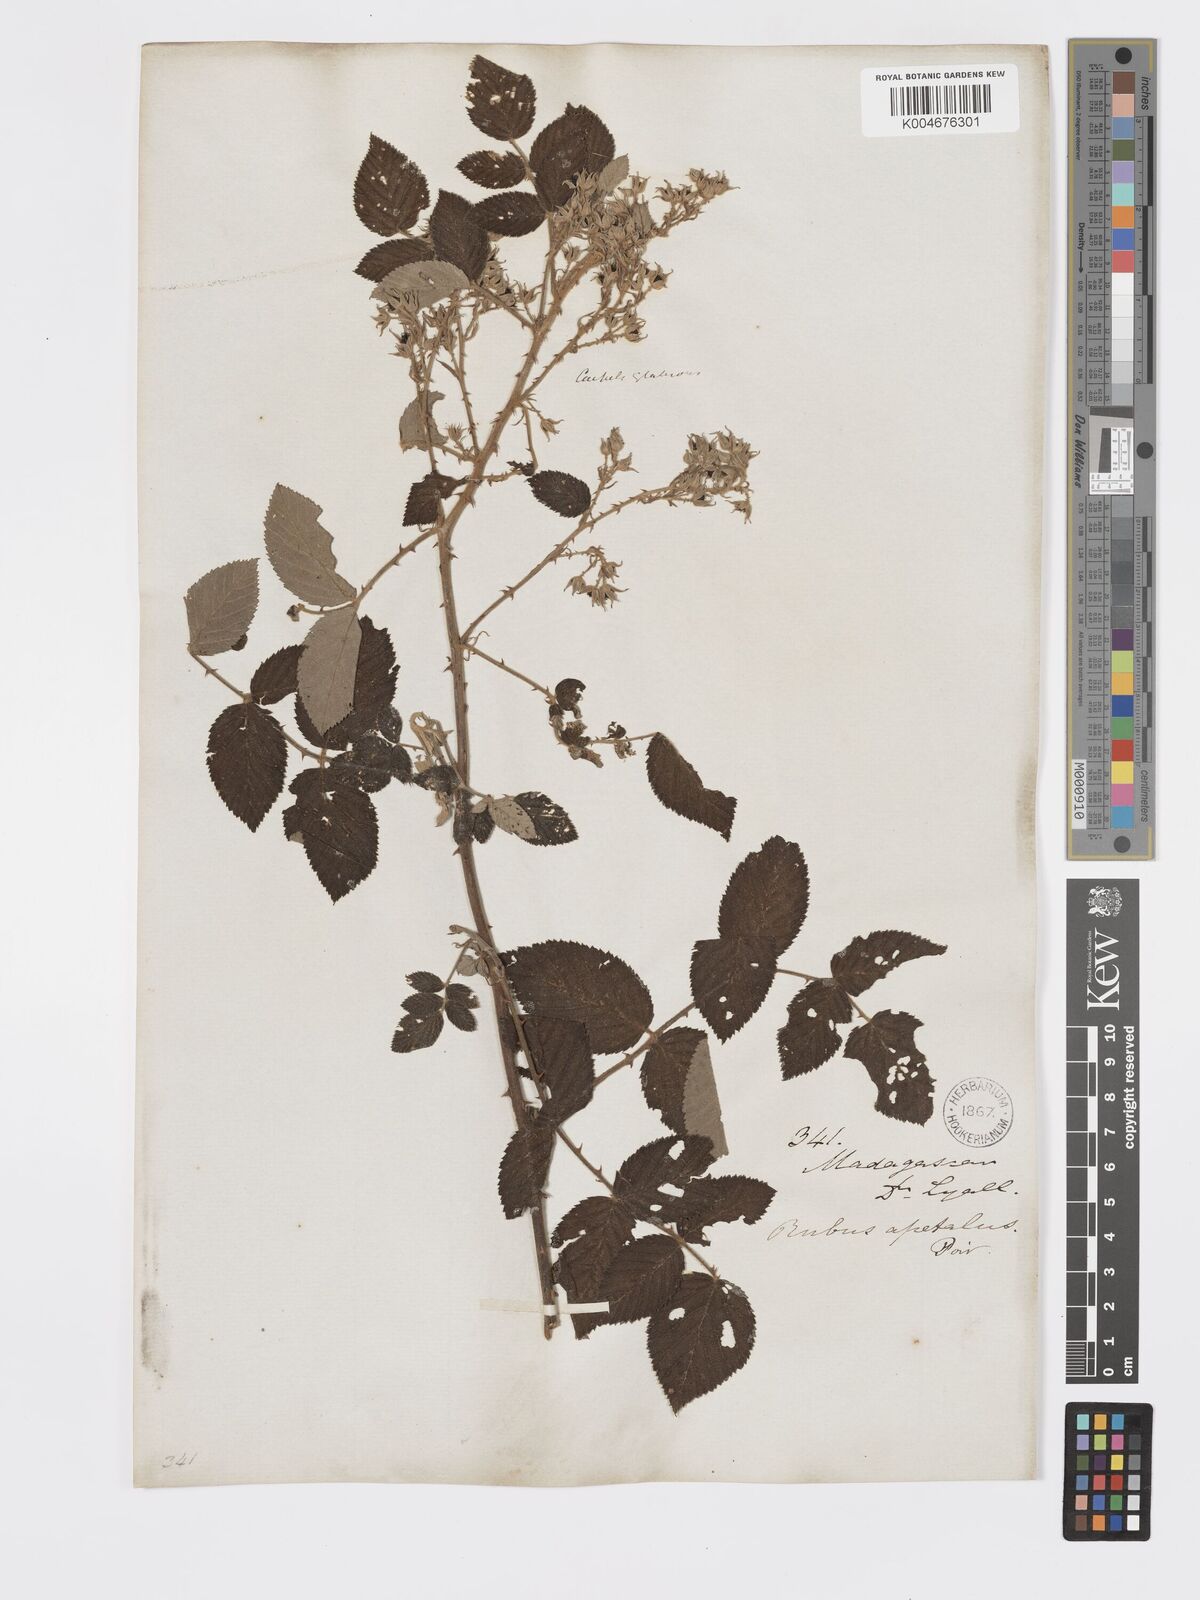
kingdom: Plantae
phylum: Tracheophyta
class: Magnoliopsida
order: Rosales
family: Rosaceae
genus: Rubus
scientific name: Rubus
